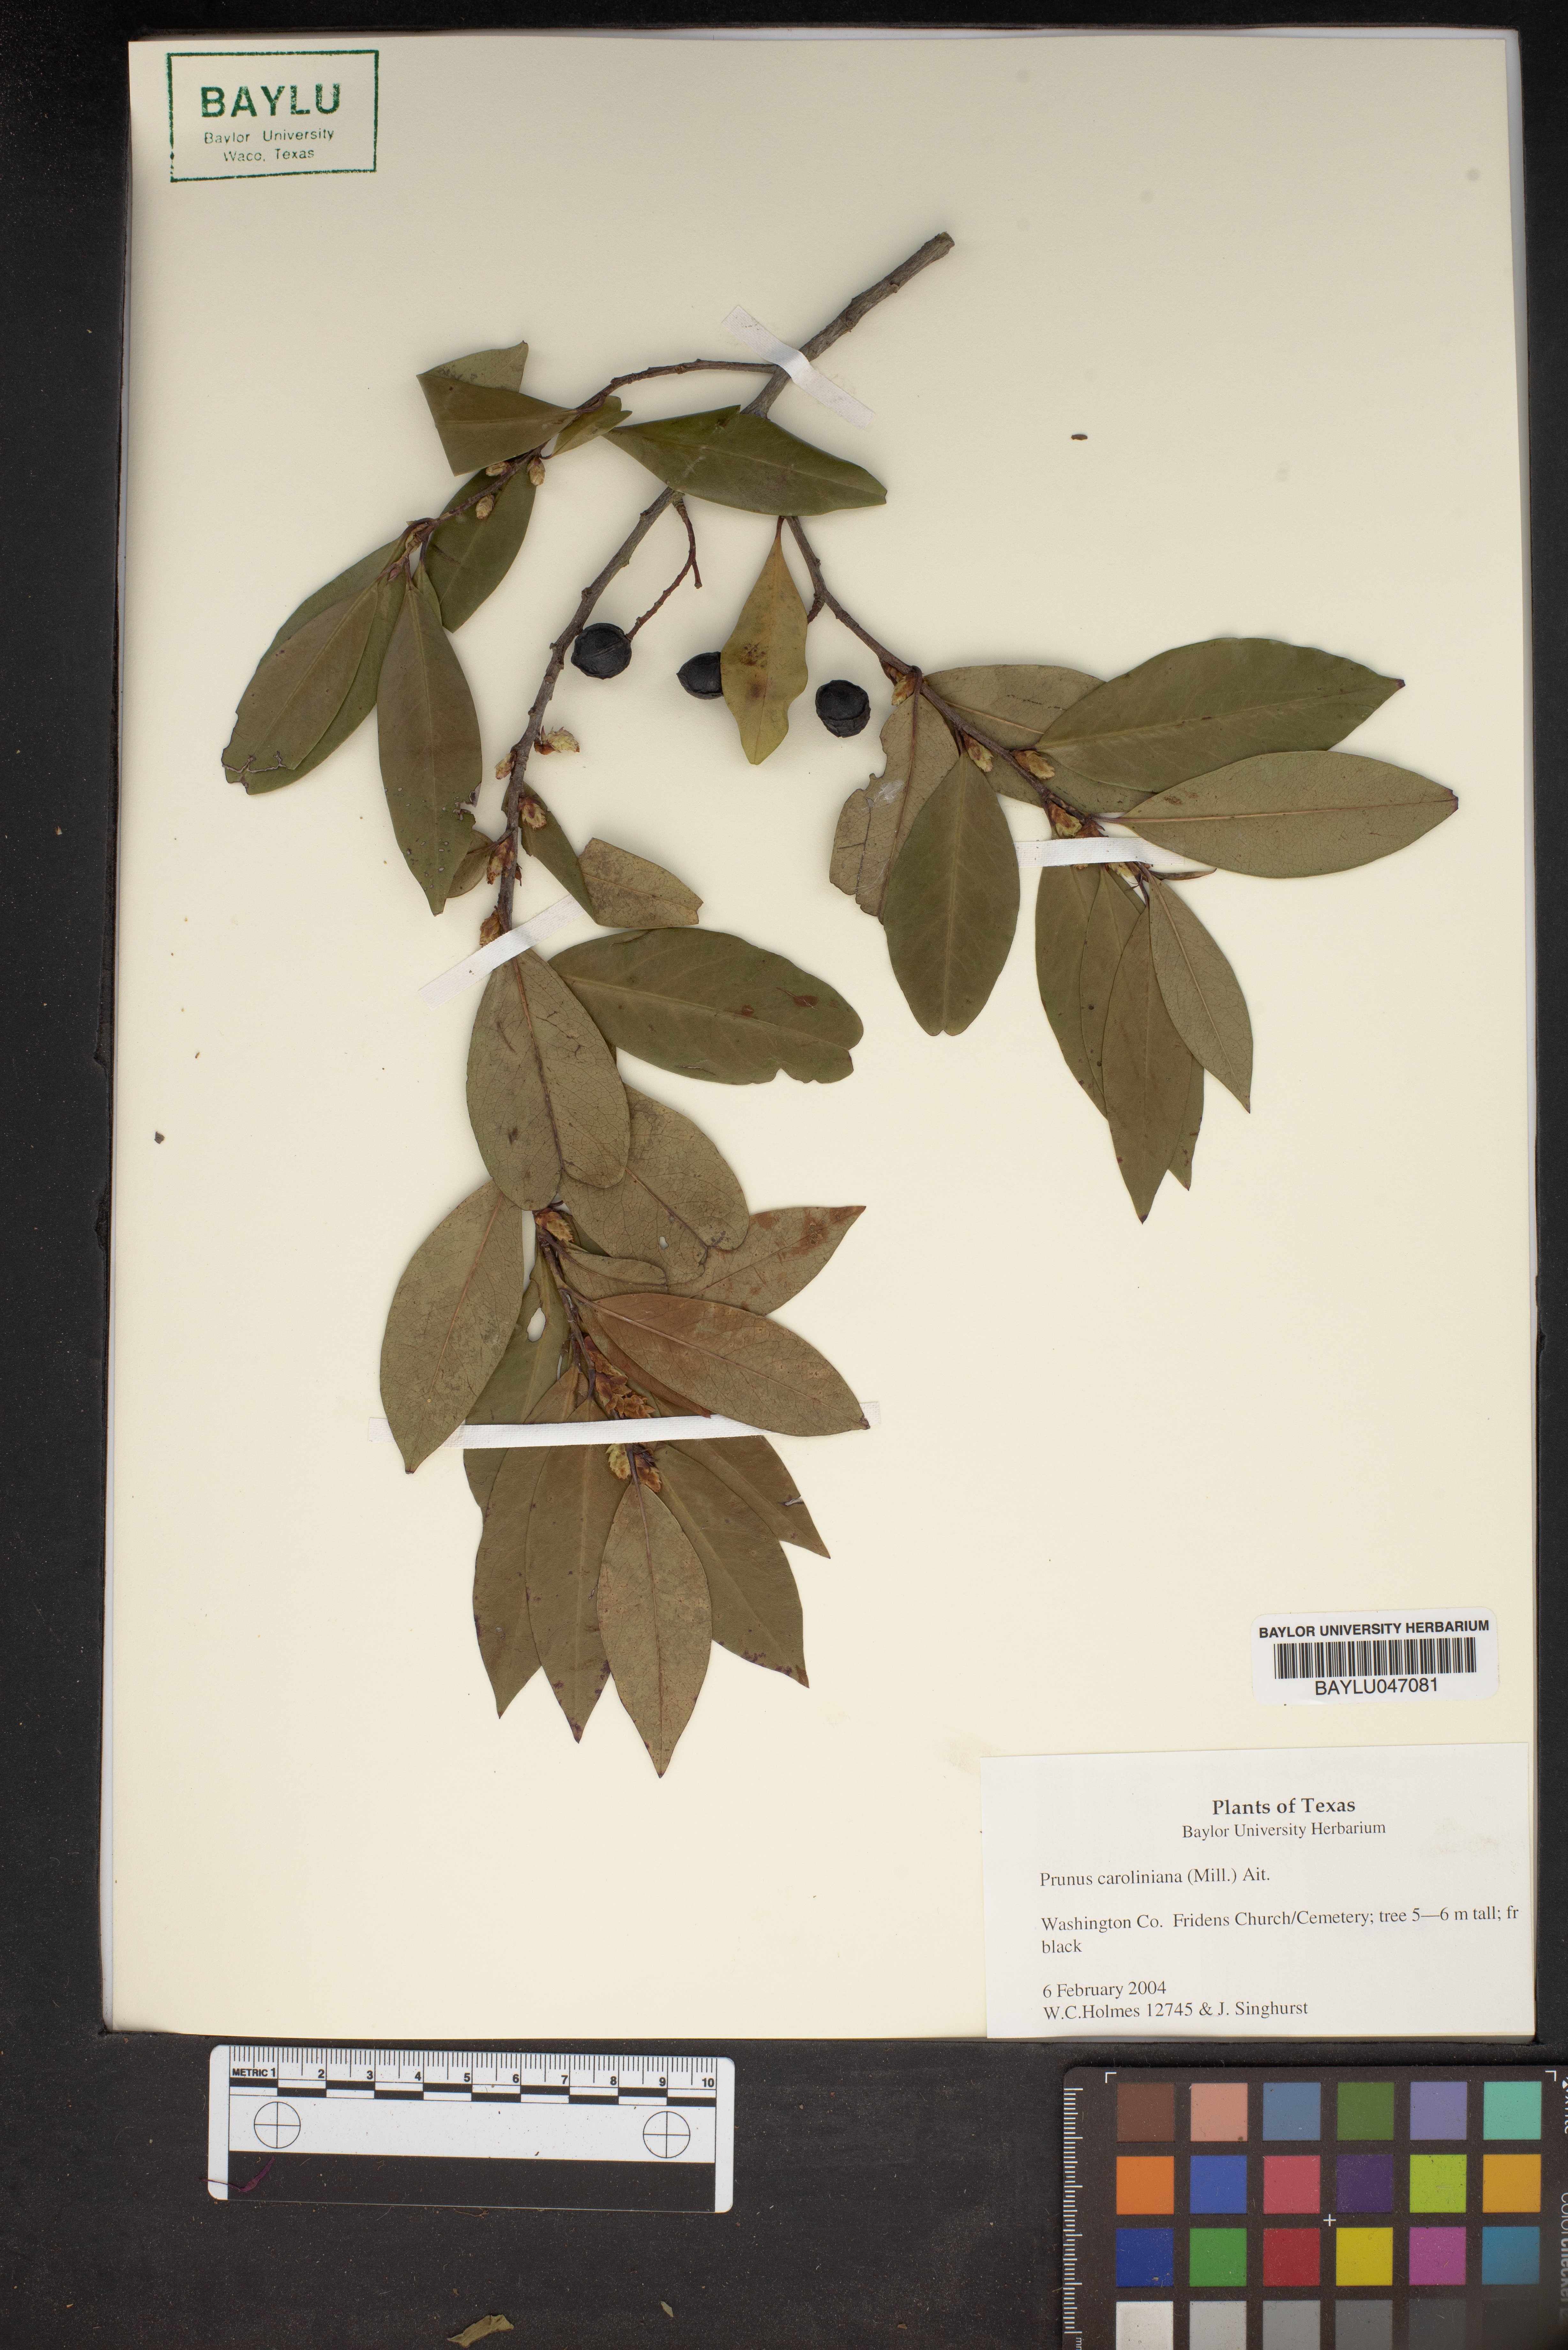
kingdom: Plantae
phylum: Tracheophyta
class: Magnoliopsida
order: Rosales
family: Rosaceae
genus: Prunus
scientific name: Prunus caroliniana
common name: Carolina laurel cherry
